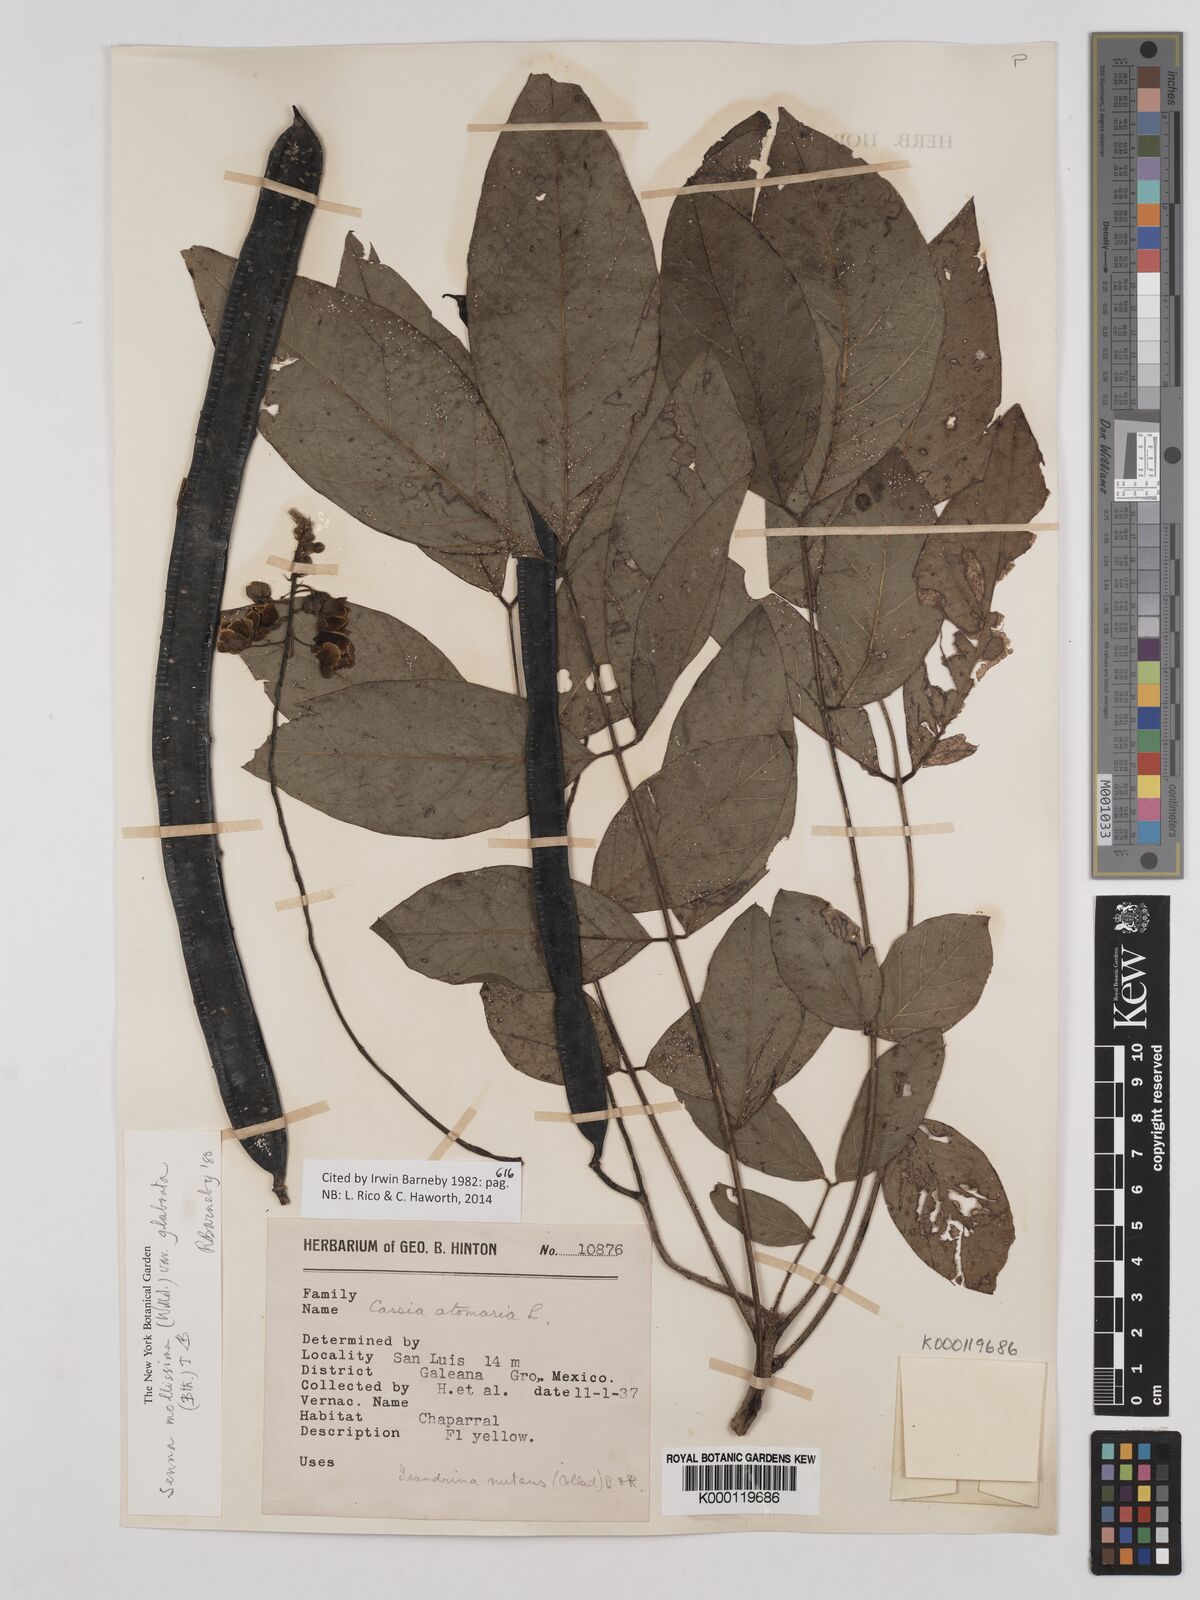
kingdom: Plantae
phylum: Tracheophyta
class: Magnoliopsida
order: Fabales
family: Fabaceae
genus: Senna
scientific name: Senna mollissima
